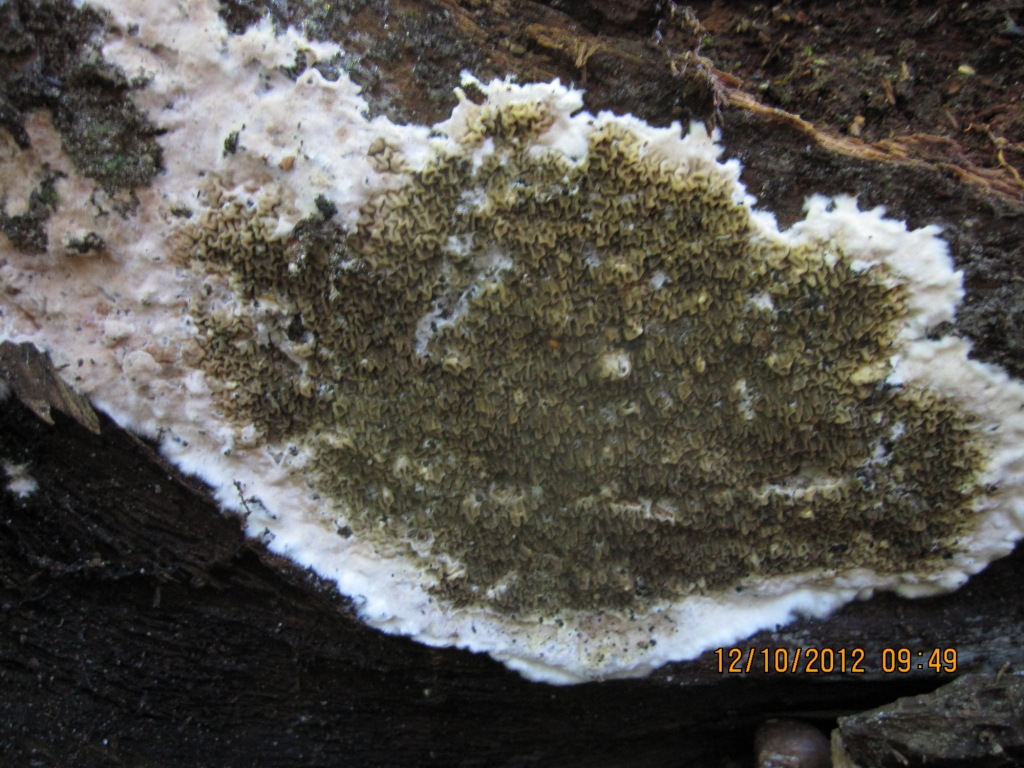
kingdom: Fungi
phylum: Basidiomycota
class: Agaricomycetes
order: Boletales
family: Serpulaceae
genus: Serpula
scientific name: Serpula himantioides
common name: tyndkødet hussvamp
